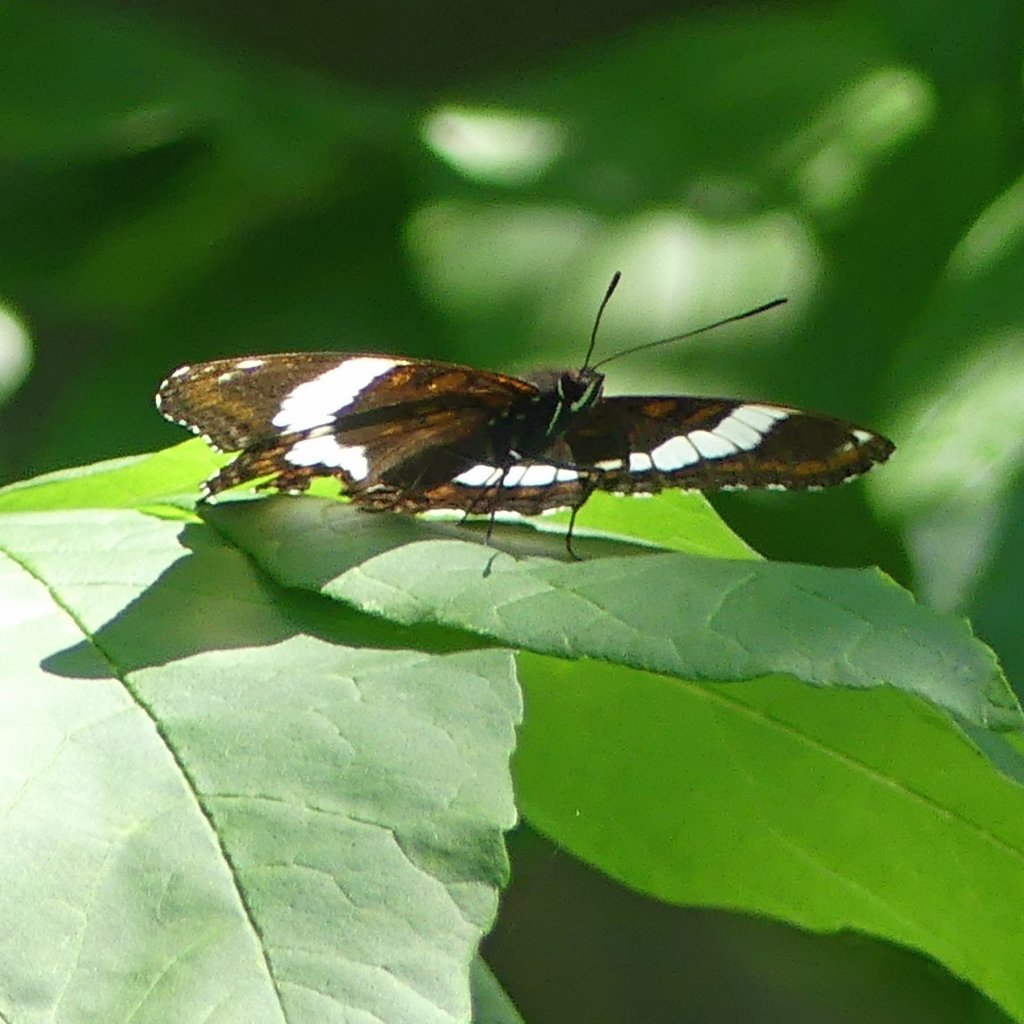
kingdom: Animalia
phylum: Arthropoda
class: Insecta
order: Lepidoptera
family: Nymphalidae
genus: Limenitis
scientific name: Limenitis arthemis
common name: Red-spotted Admiral
